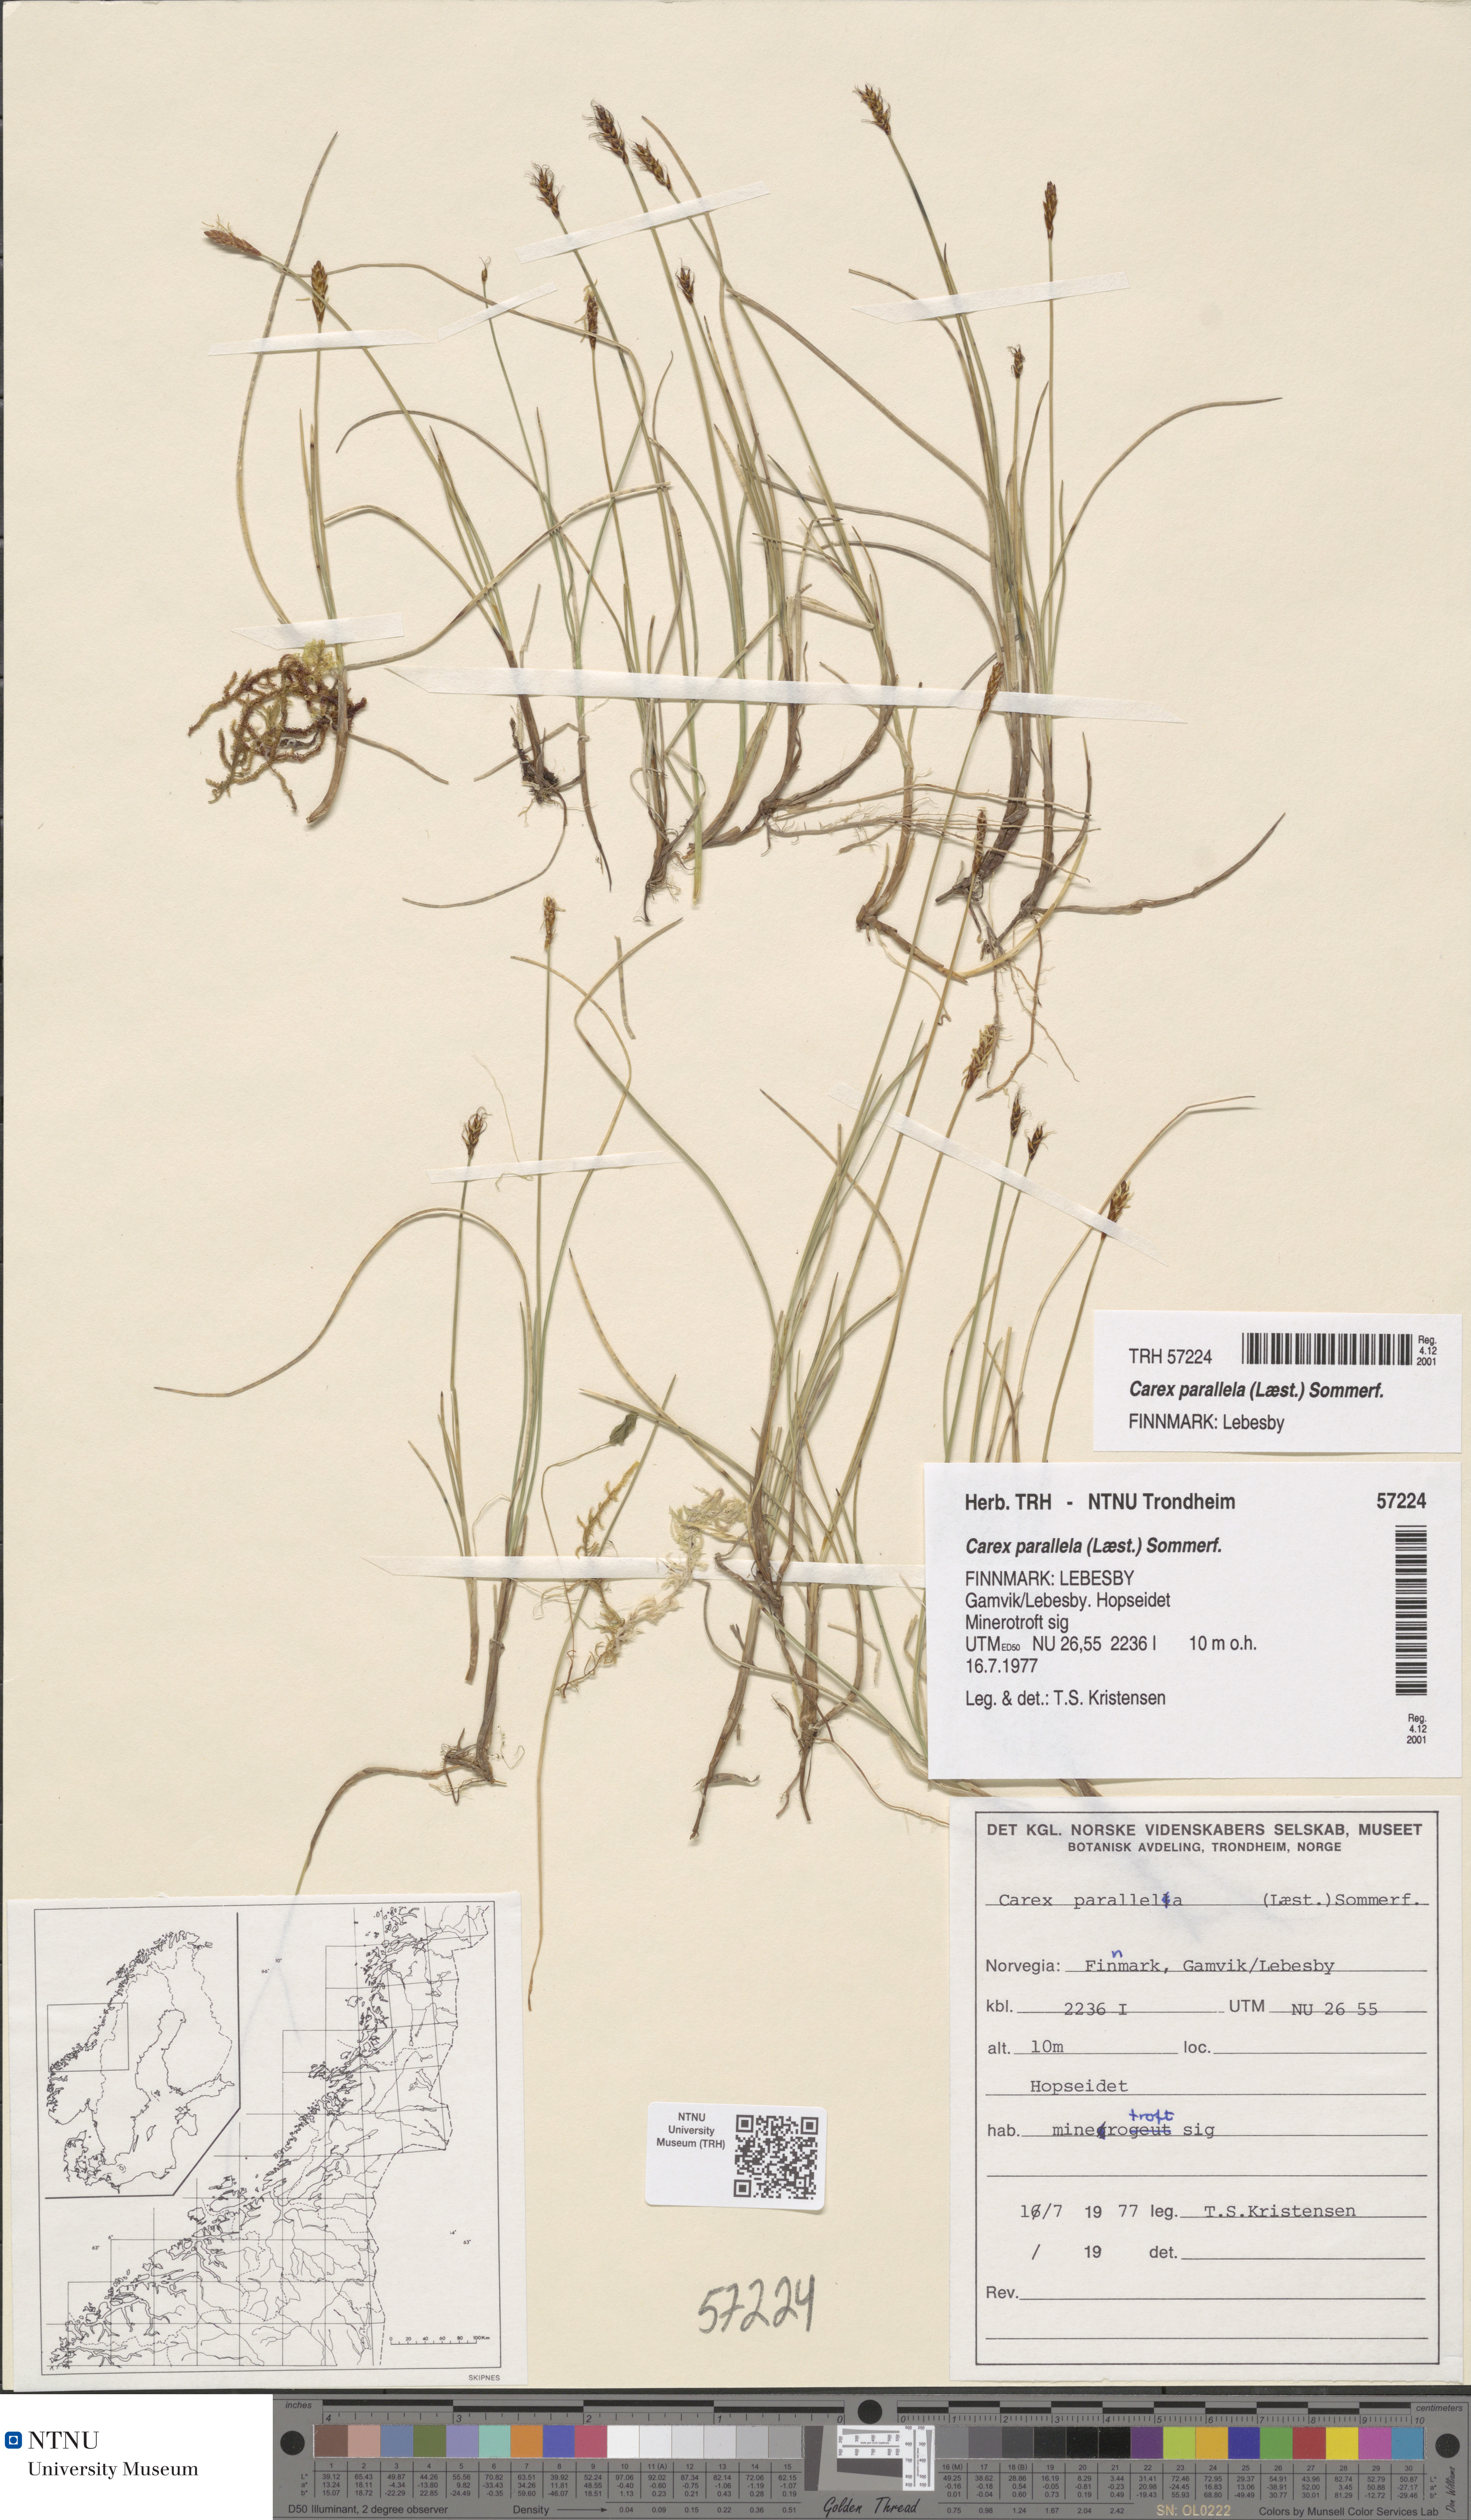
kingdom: Plantae
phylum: Tracheophyta
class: Liliopsida
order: Poales
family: Cyperaceae
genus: Carex
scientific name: Carex parallela
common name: Parallel sedge
